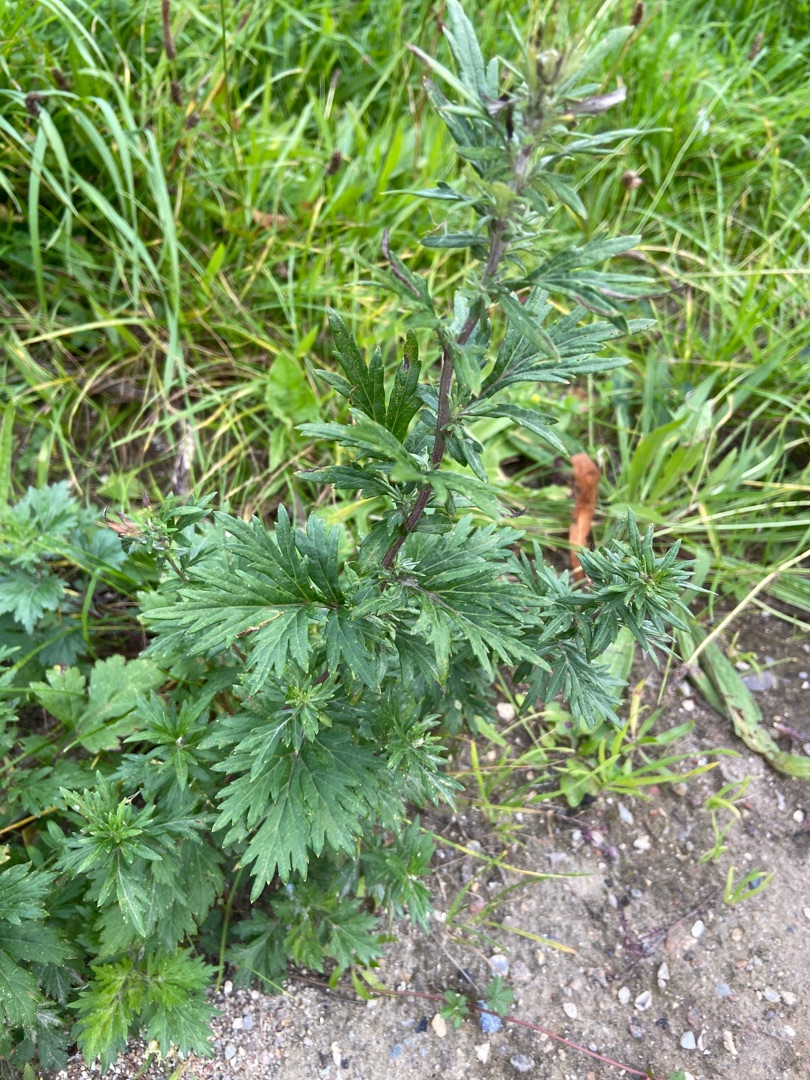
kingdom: Plantae
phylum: Tracheophyta
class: Magnoliopsida
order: Asterales
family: Asteraceae
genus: Artemisia
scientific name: Artemisia vulgaris
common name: Grå-bynke
